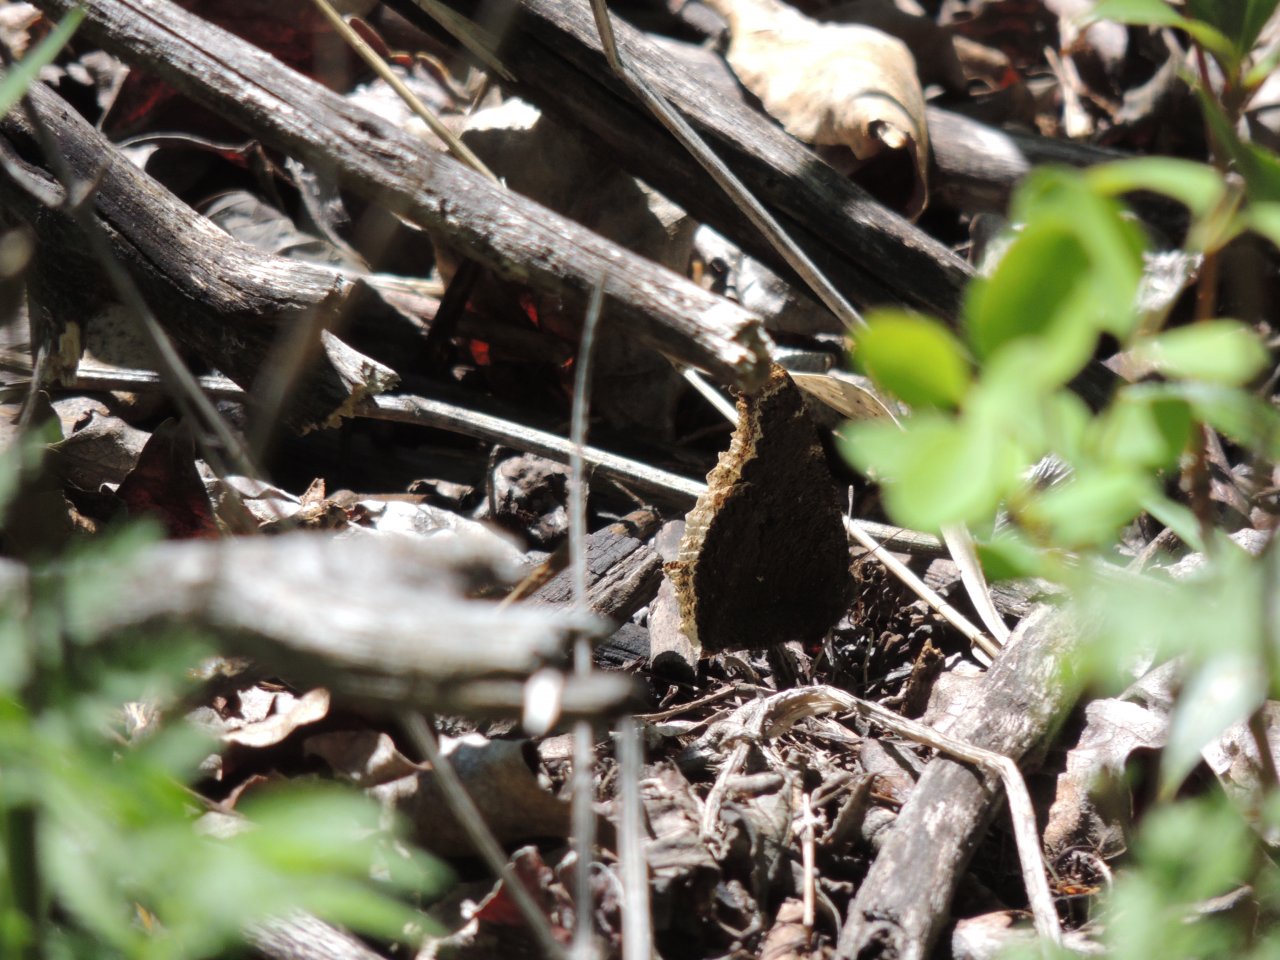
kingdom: Animalia
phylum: Arthropoda
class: Insecta
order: Lepidoptera
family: Nymphalidae
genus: Nymphalis
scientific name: Nymphalis antiopa
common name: Mourning Cloak
